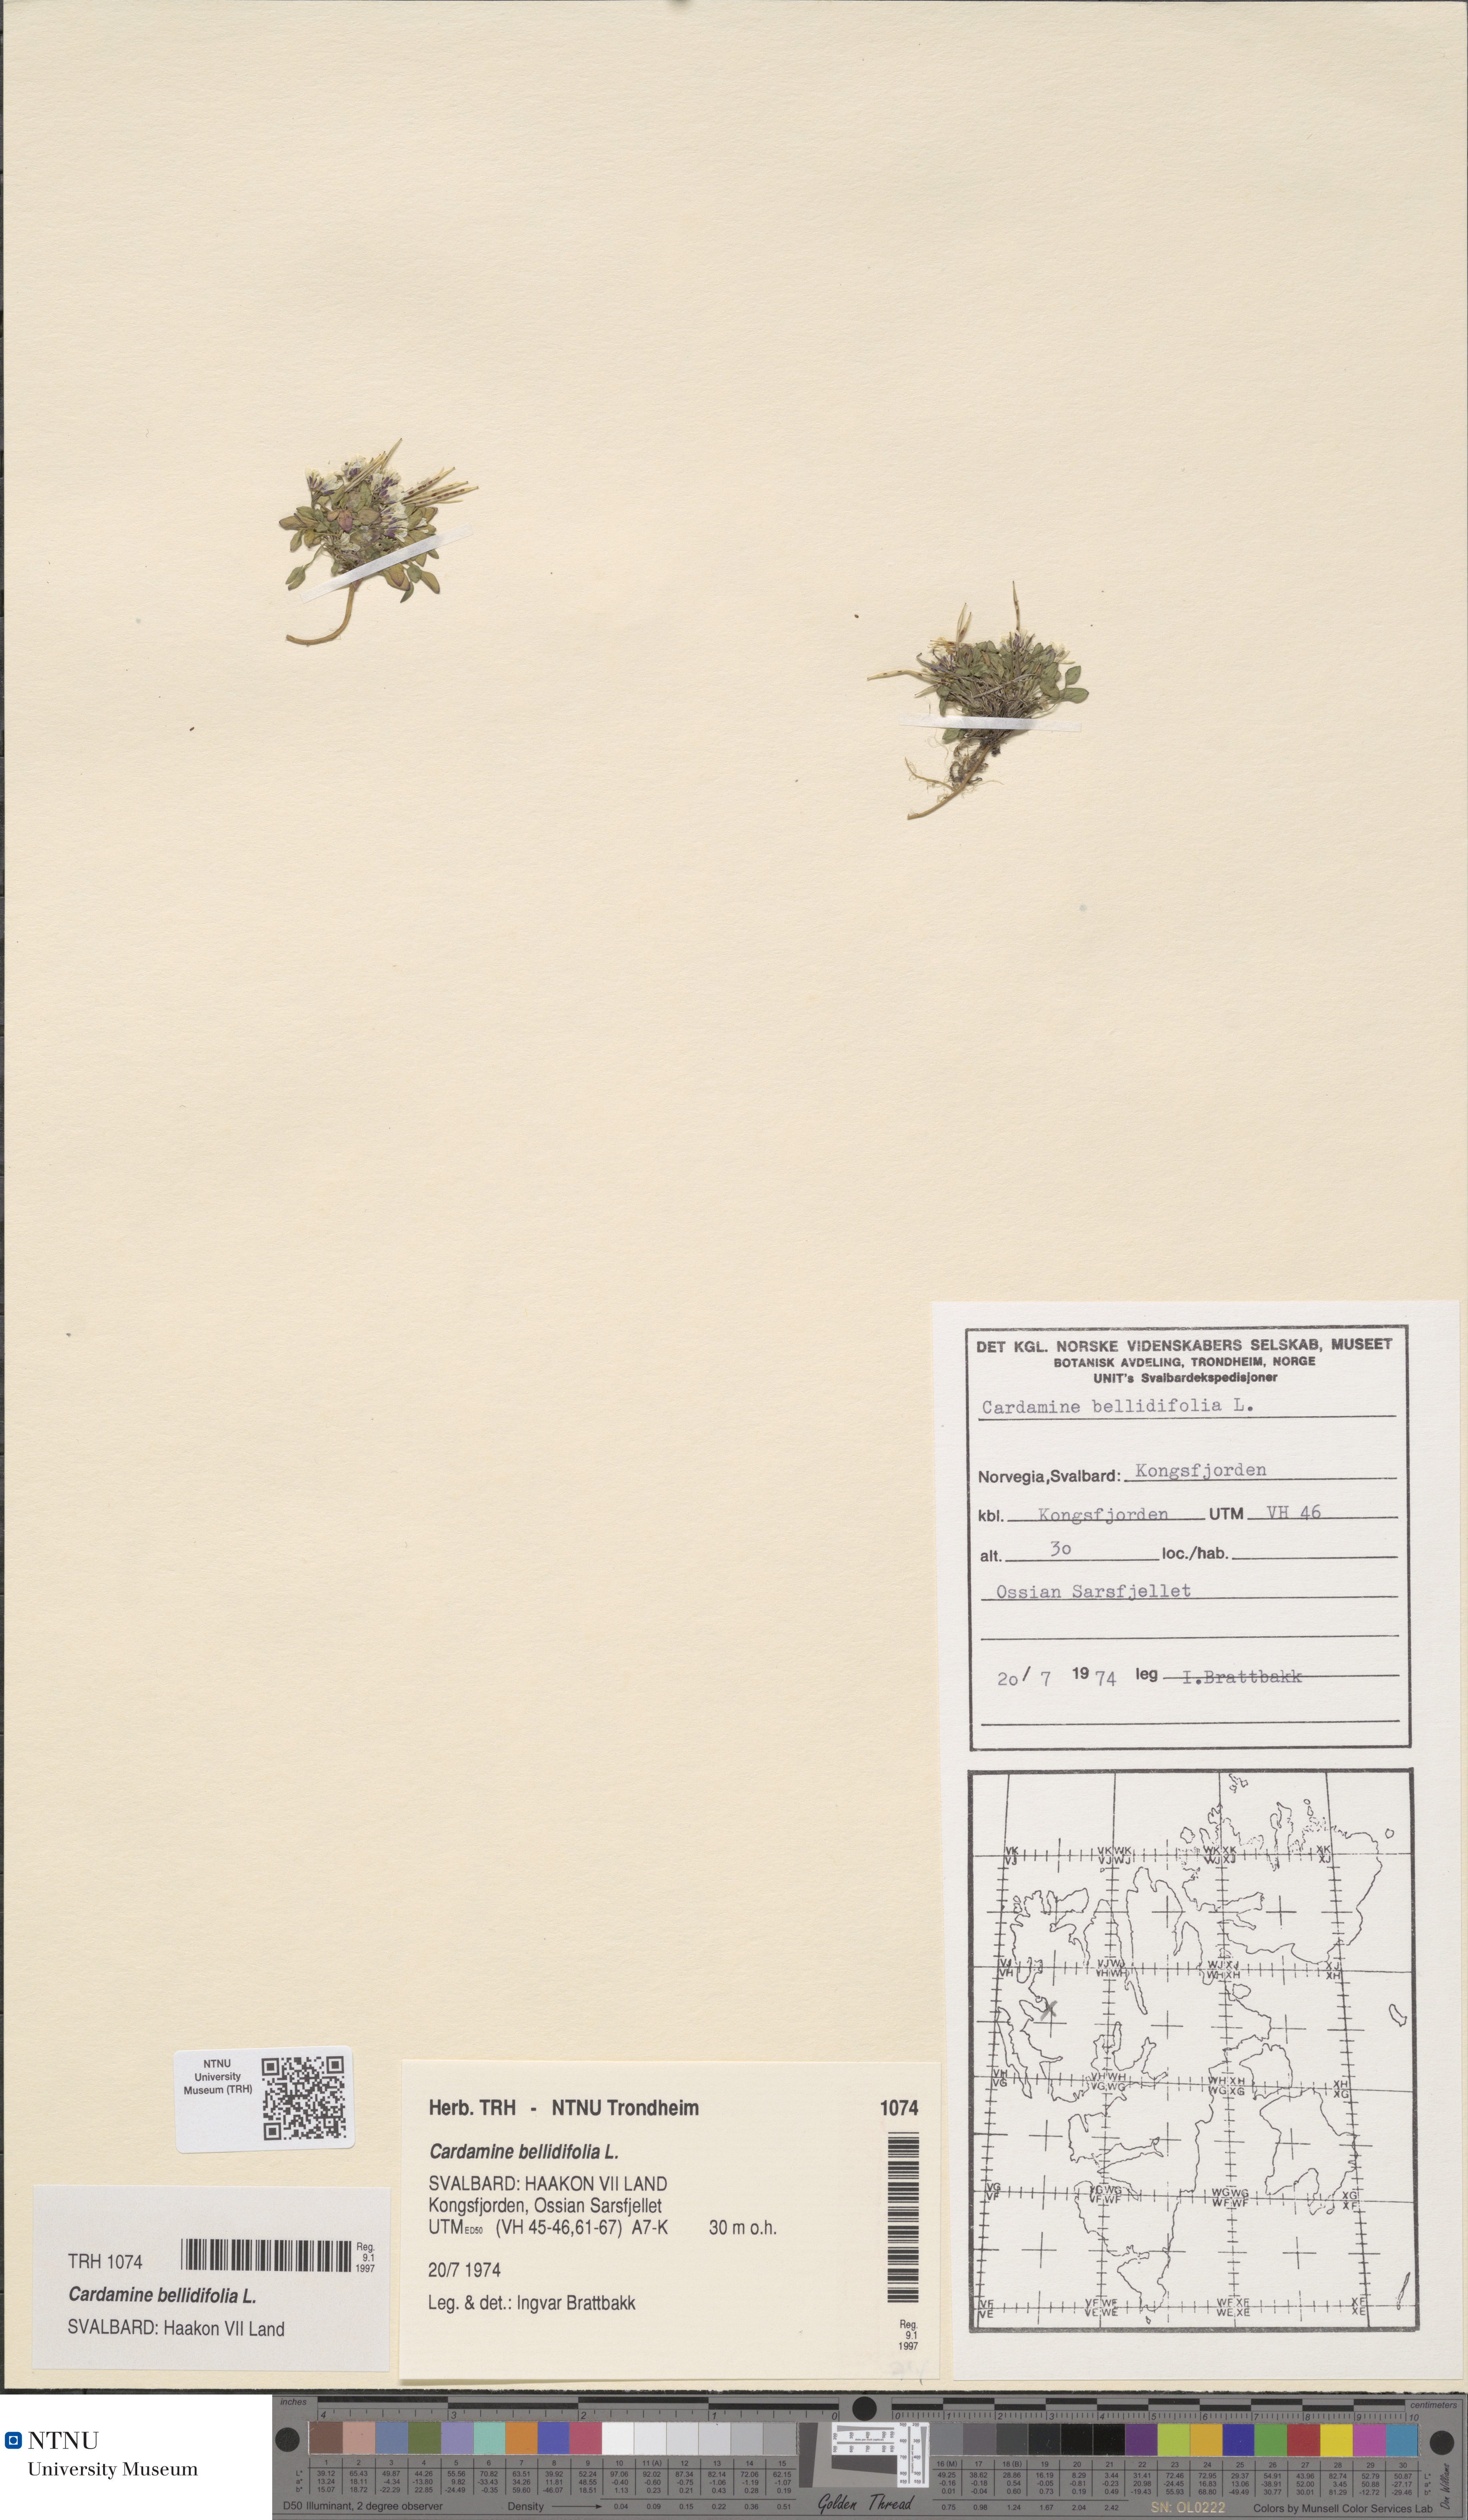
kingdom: Plantae
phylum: Tracheophyta
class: Magnoliopsida
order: Brassicales
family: Brassicaceae
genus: Cardamine
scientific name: Cardamine bellidifolia
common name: Alpine bittercress
